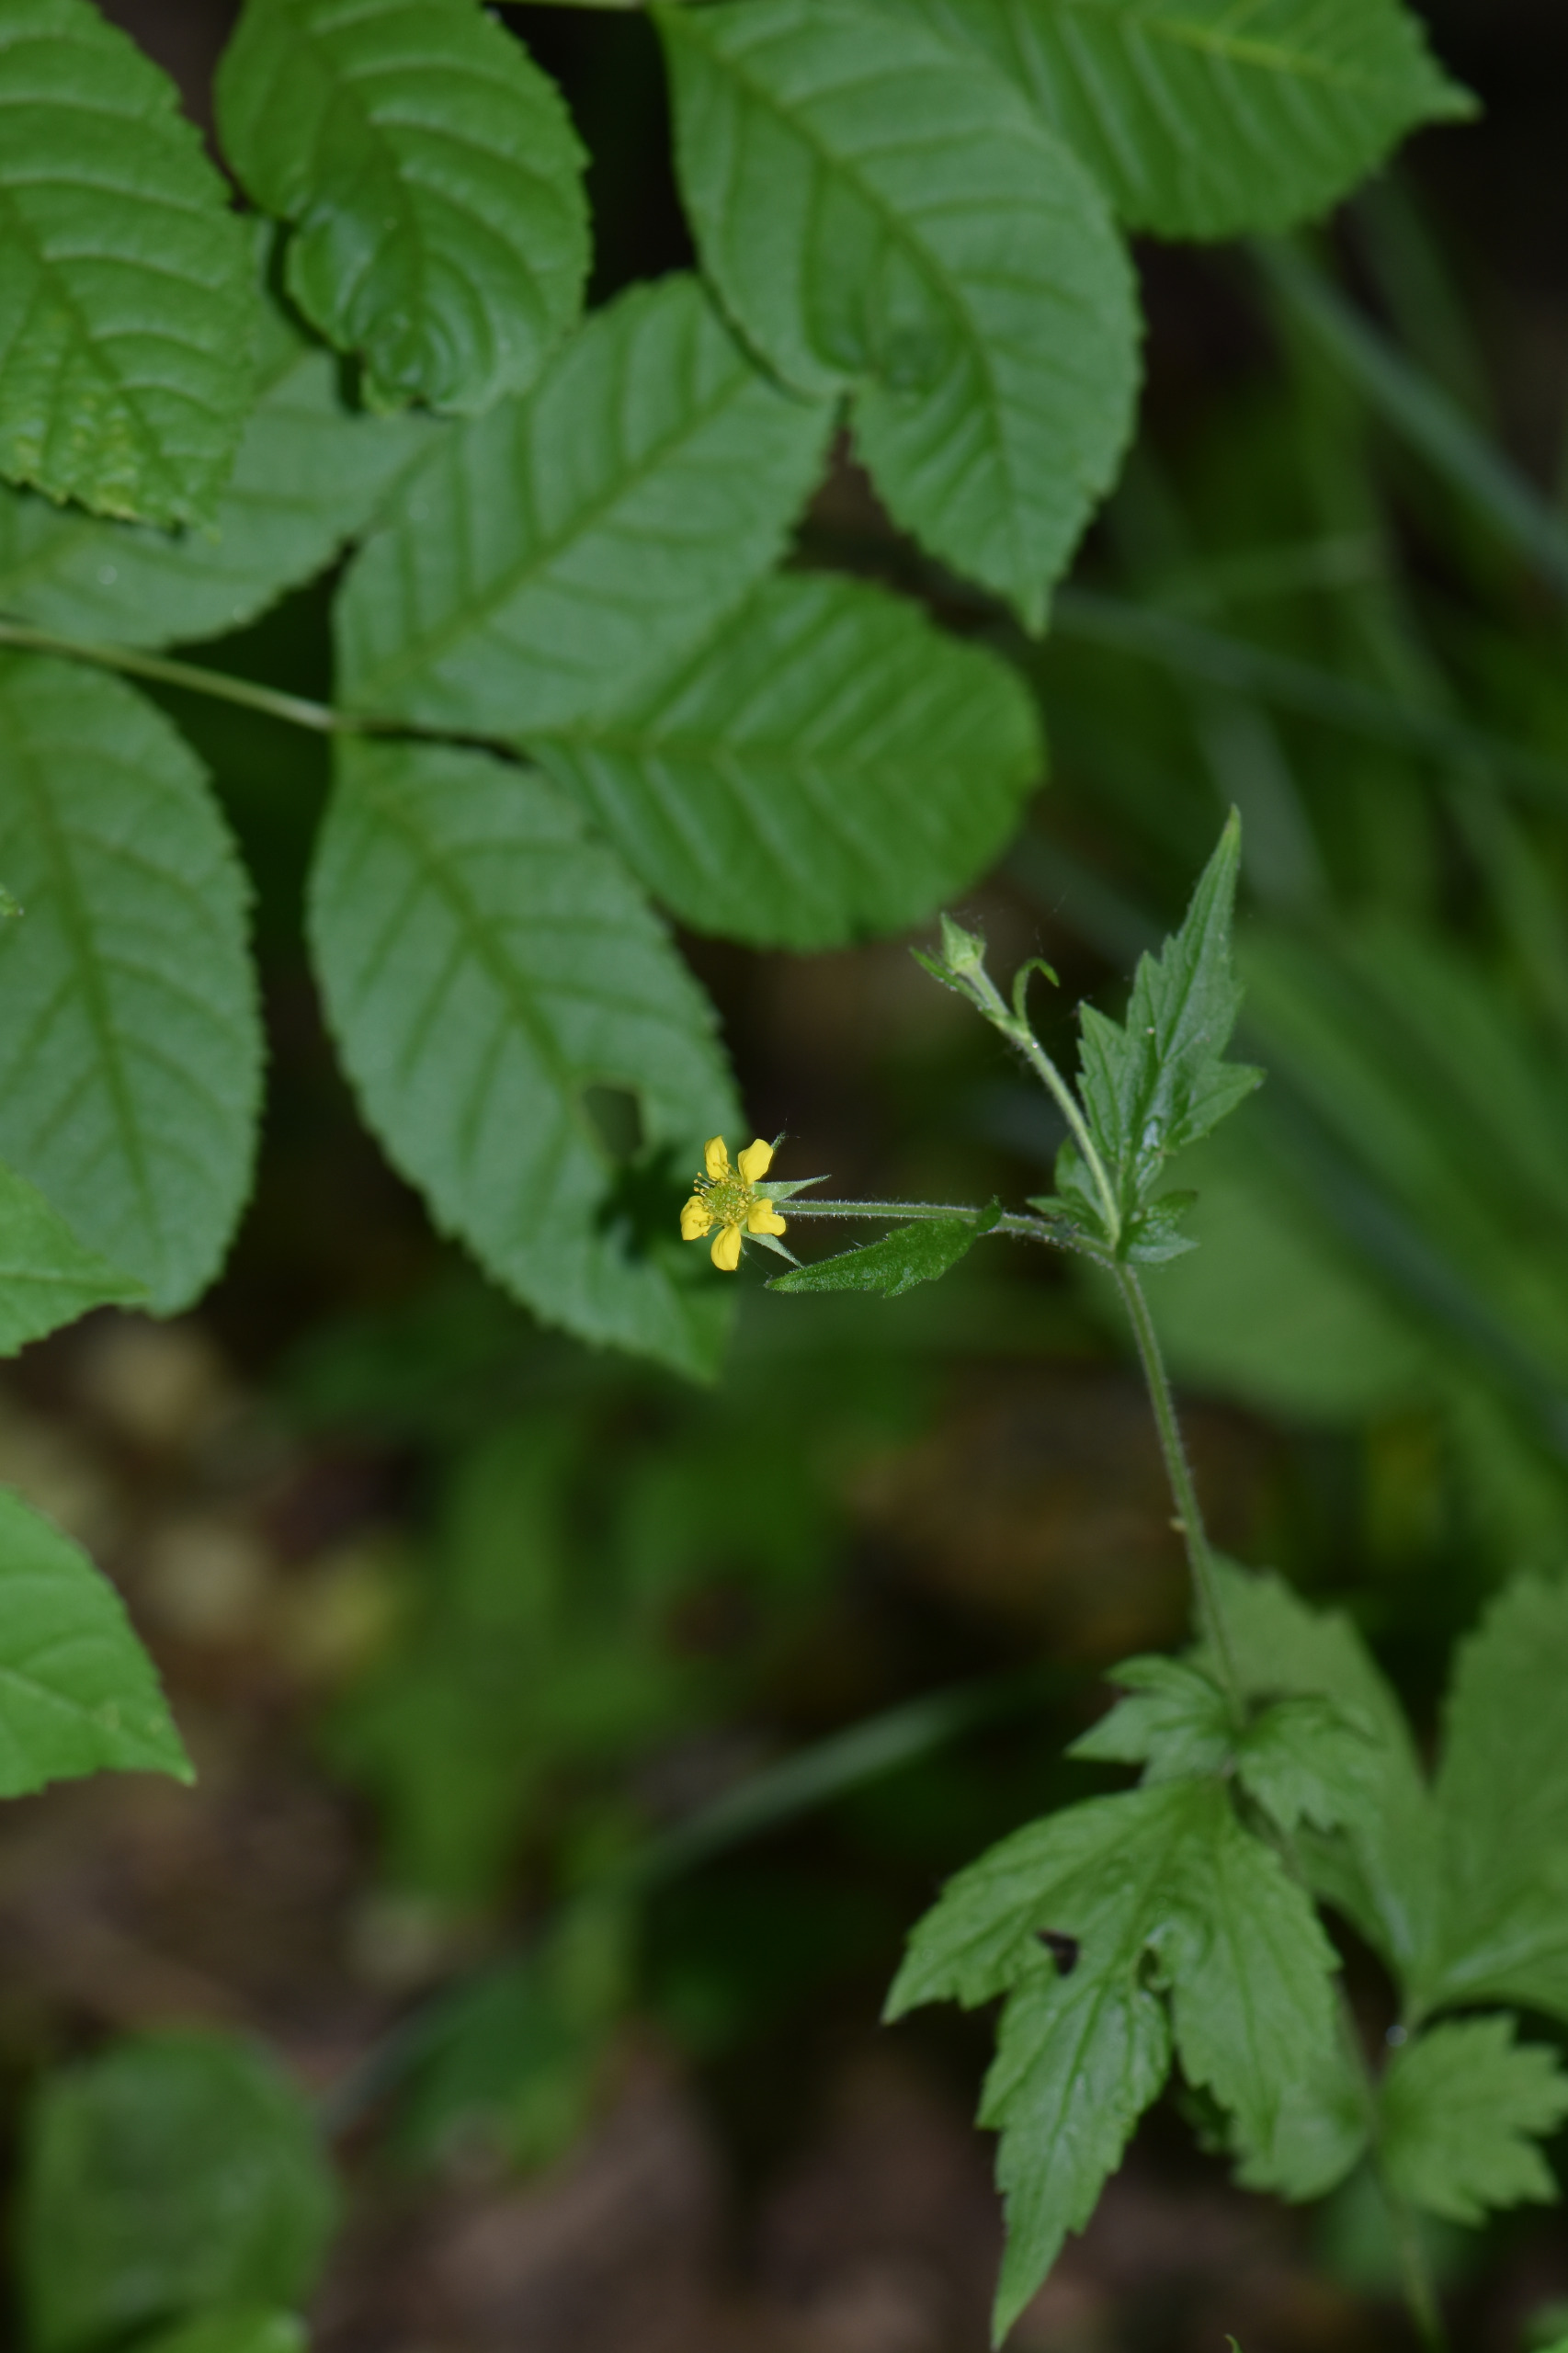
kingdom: Plantae
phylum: Tracheophyta
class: Magnoliopsida
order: Rosales
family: Rosaceae
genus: Geum
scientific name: Geum urbanum
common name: Feber-nellikerod
